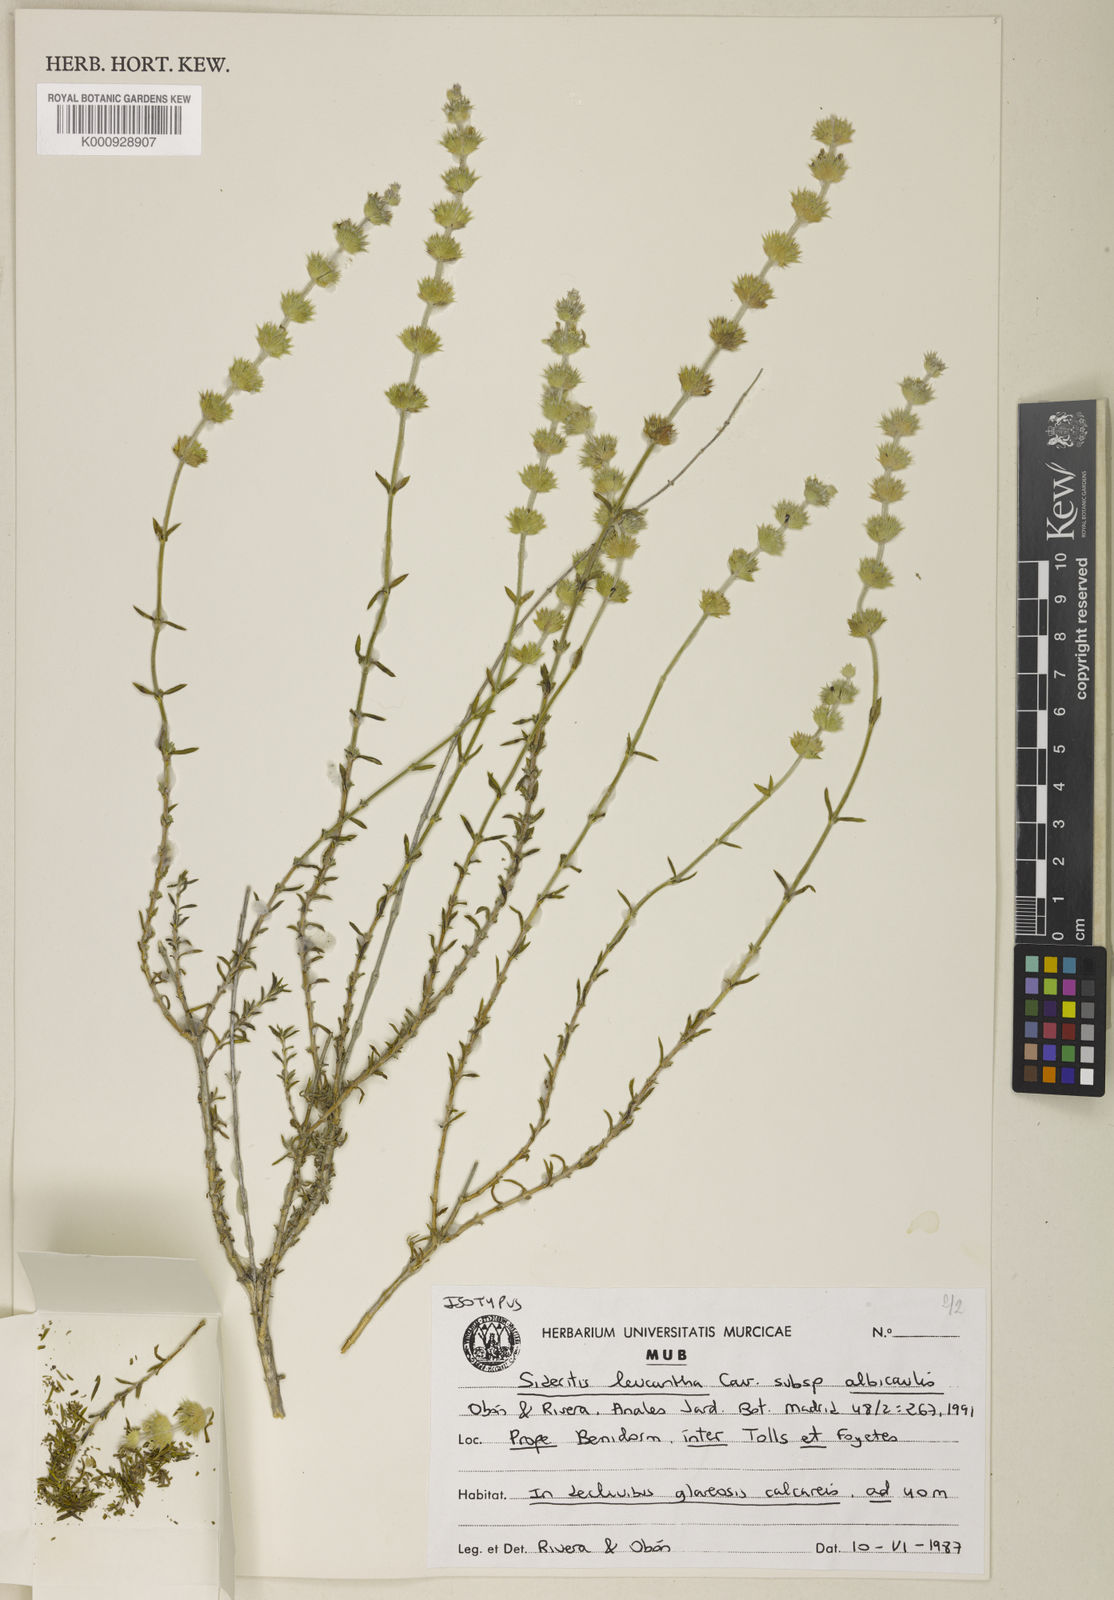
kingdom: Plantae
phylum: Tracheophyta
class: Magnoliopsida
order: Lamiales
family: Lamiaceae
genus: Sideritis
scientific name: Sideritis leucantha
